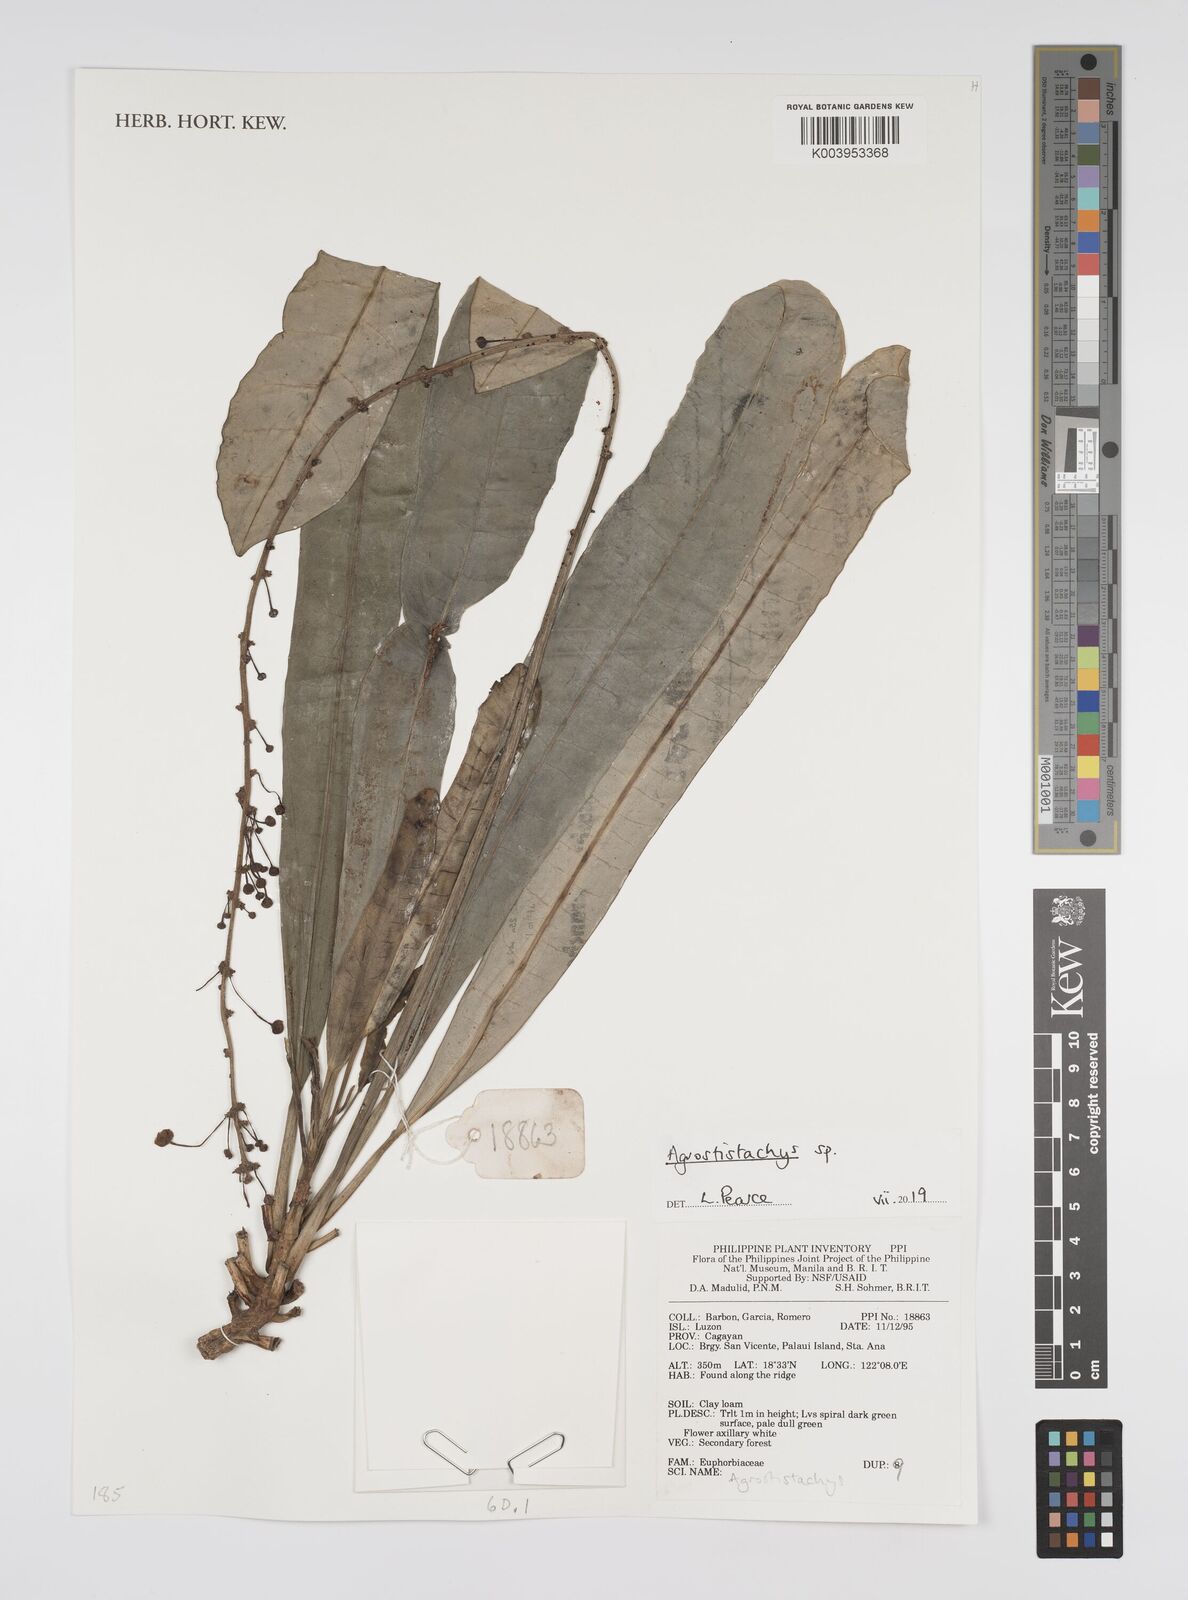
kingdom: Plantae
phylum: Tracheophyta
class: Magnoliopsida
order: Malpighiales
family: Euphorbiaceae
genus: Agrostistachys
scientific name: Agrostistachys
